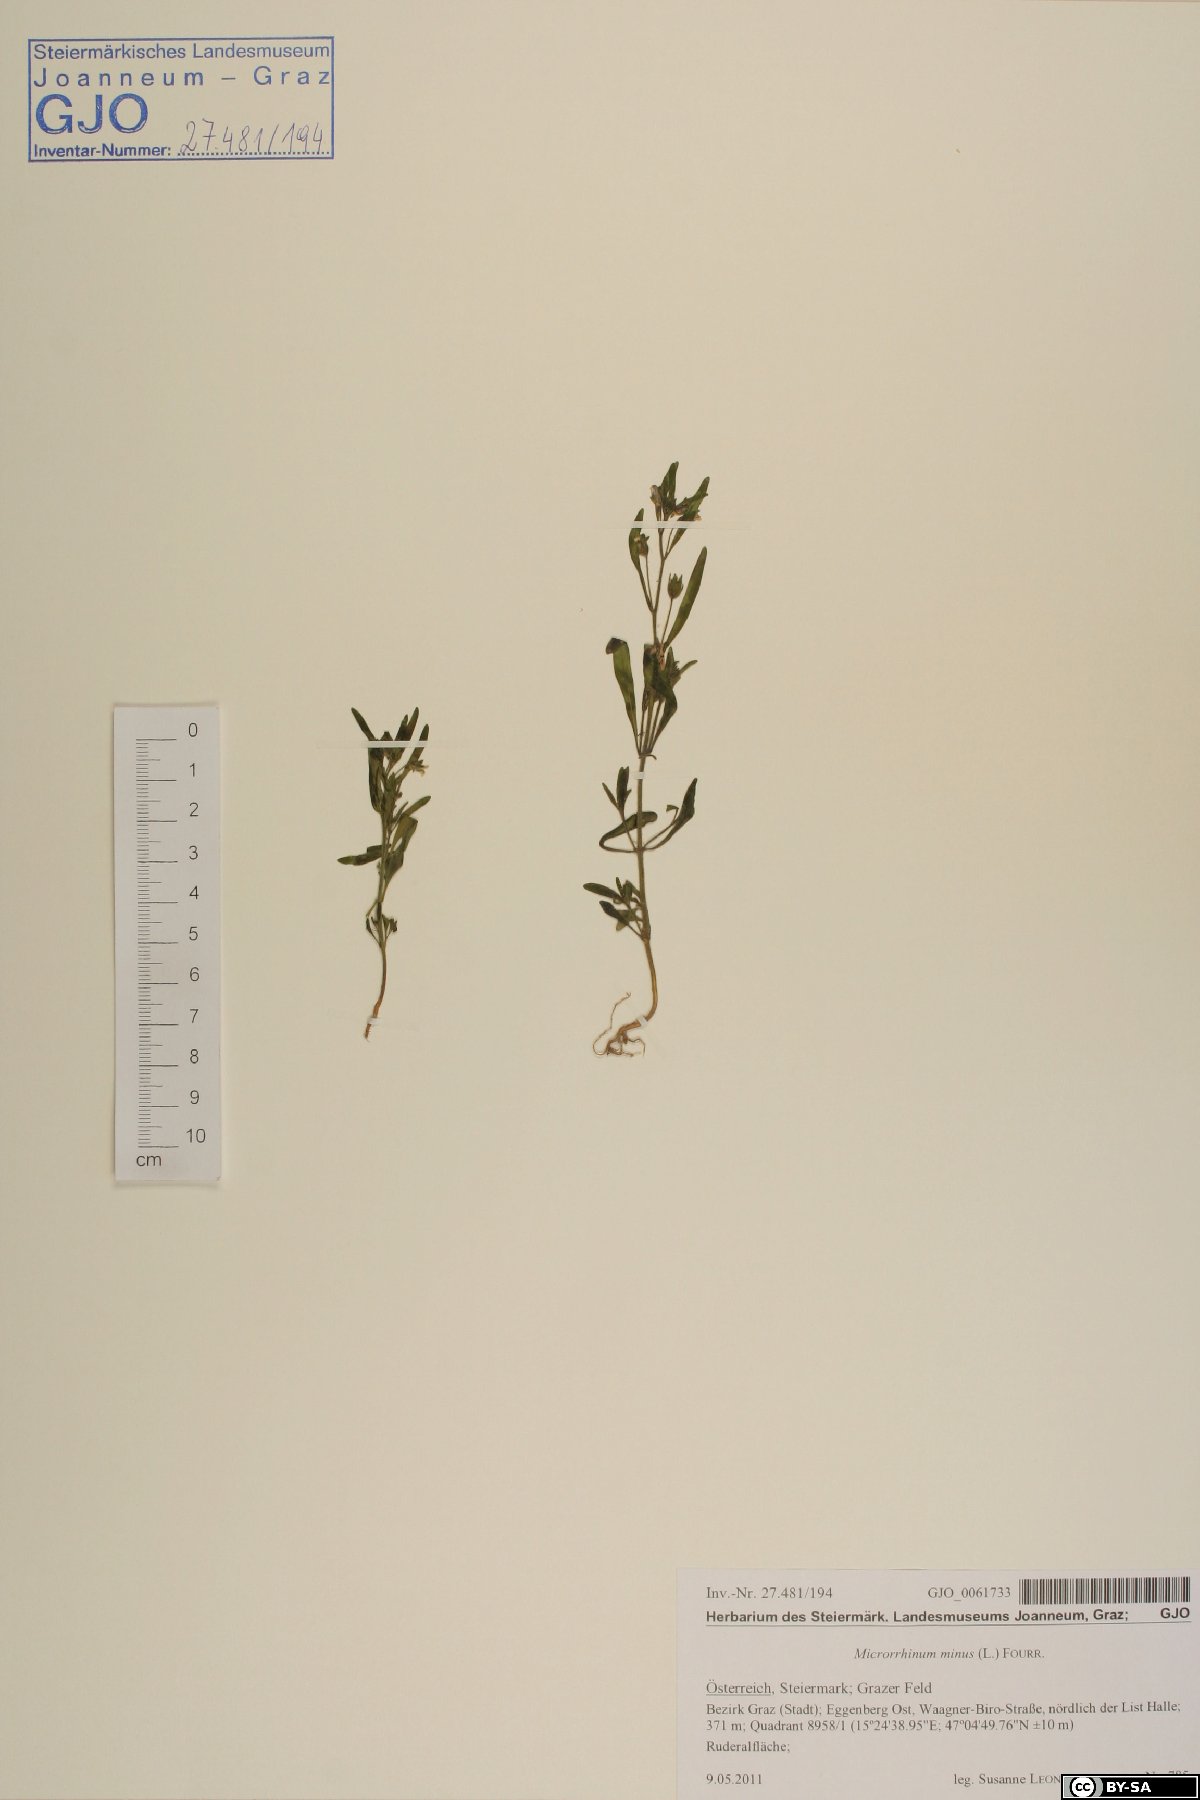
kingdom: Plantae
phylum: Tracheophyta
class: Magnoliopsida
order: Lamiales
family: Plantaginaceae
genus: Chaenorhinum
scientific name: Chaenorhinum minus
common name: Dwarf snapdragon
